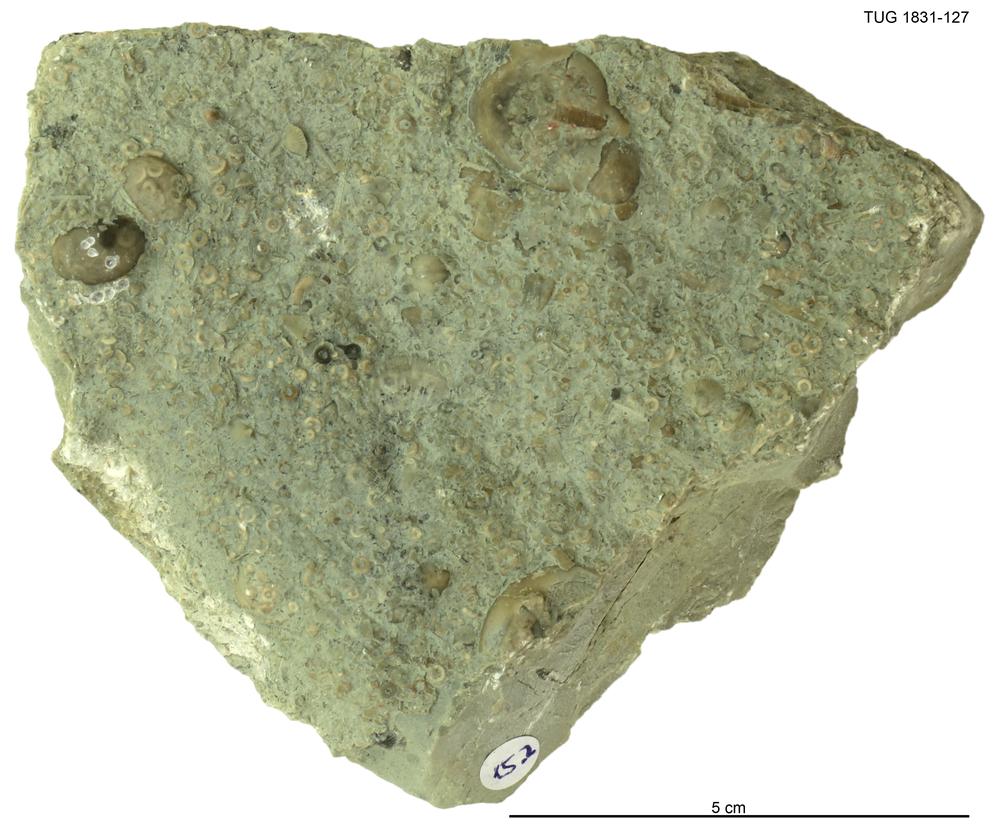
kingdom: Animalia
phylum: Brachiopoda
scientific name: Brachiopoda
